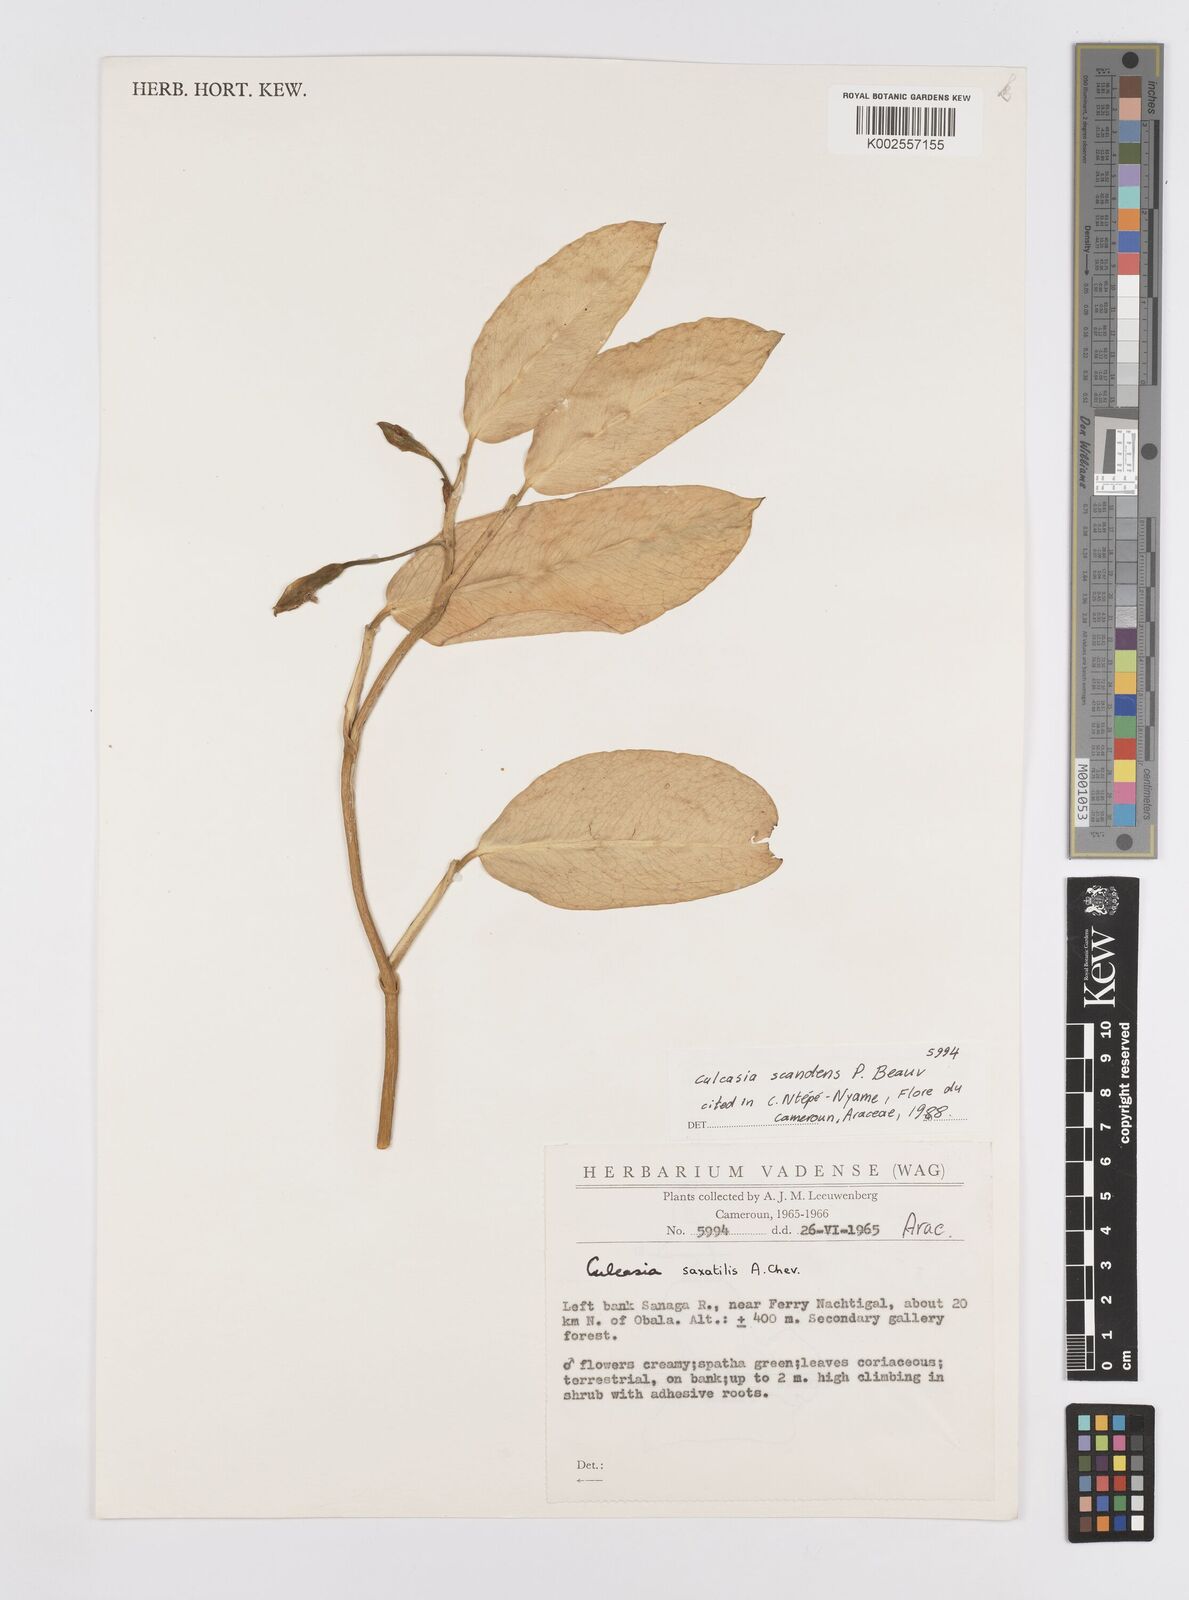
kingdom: Plantae
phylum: Tracheophyta
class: Liliopsida
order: Alismatales
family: Araceae
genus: Culcasia
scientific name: Culcasia scandens
